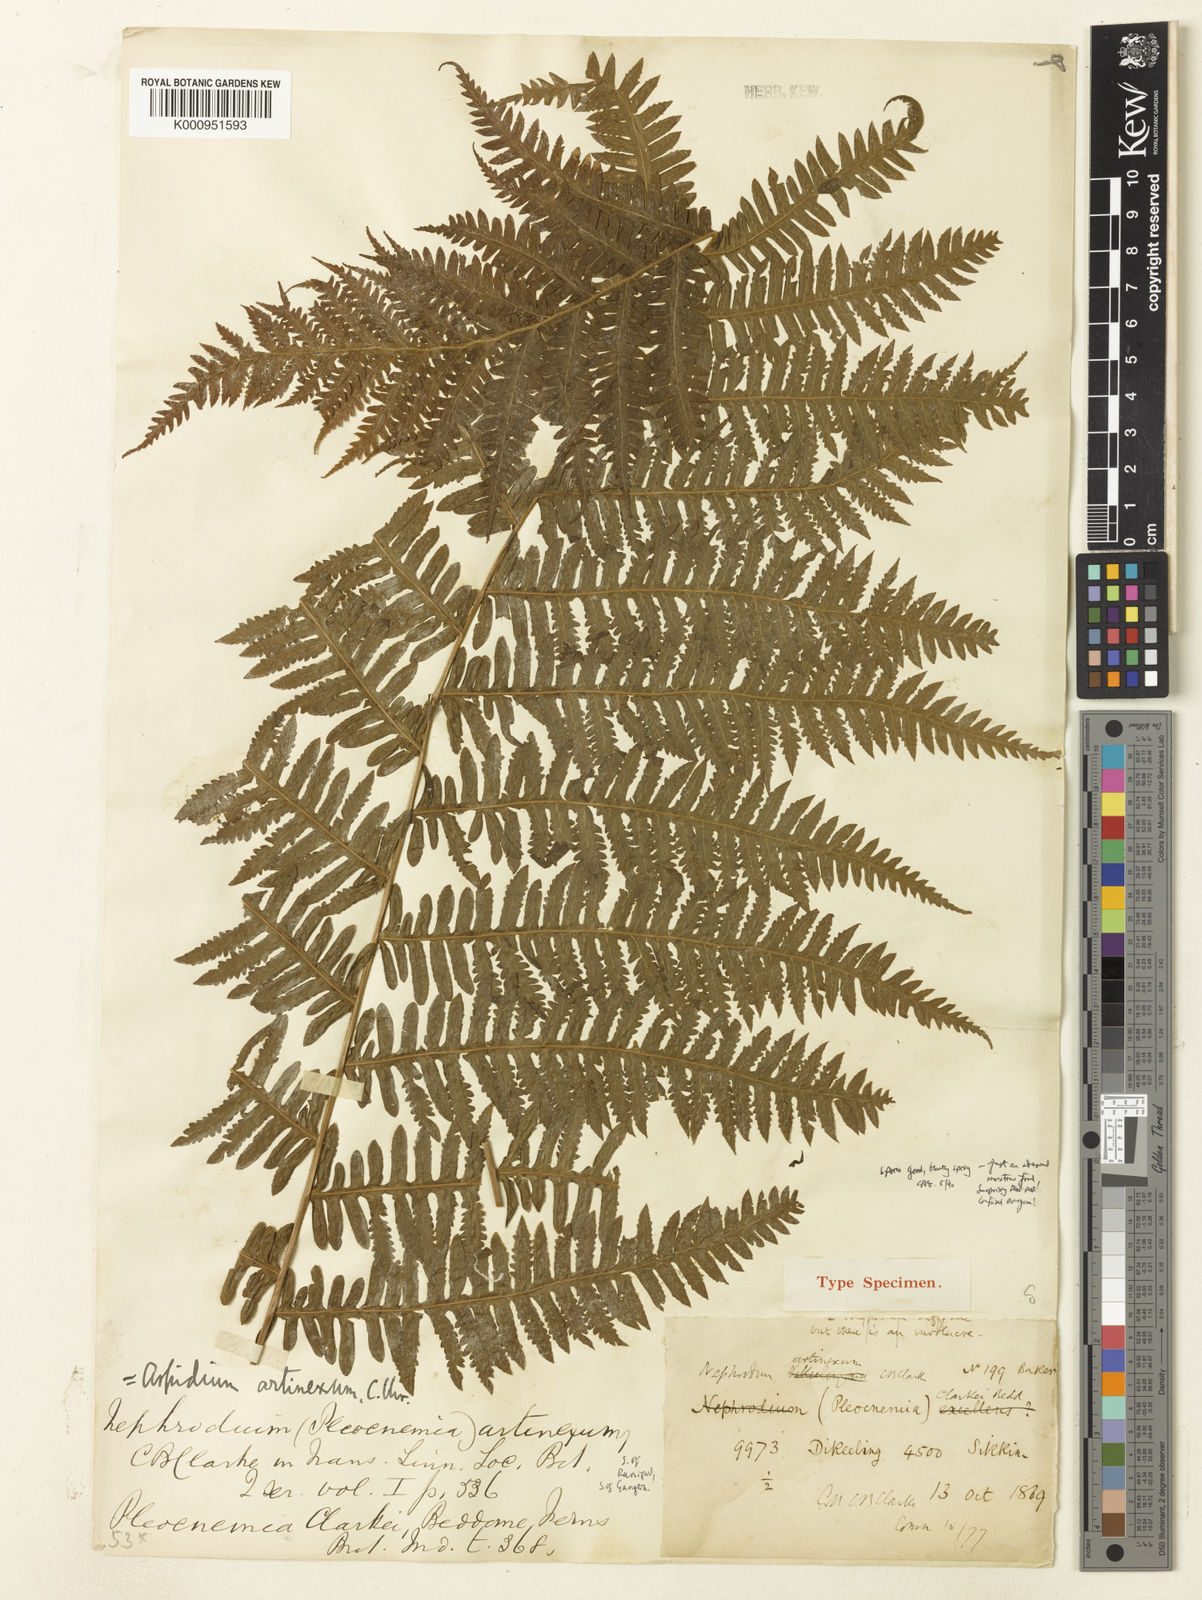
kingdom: Plantae
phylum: Tracheophyta
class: Polypodiopsida
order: Polypodiales
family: Thelypteridaceae
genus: Christella
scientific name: Christella clarkei
